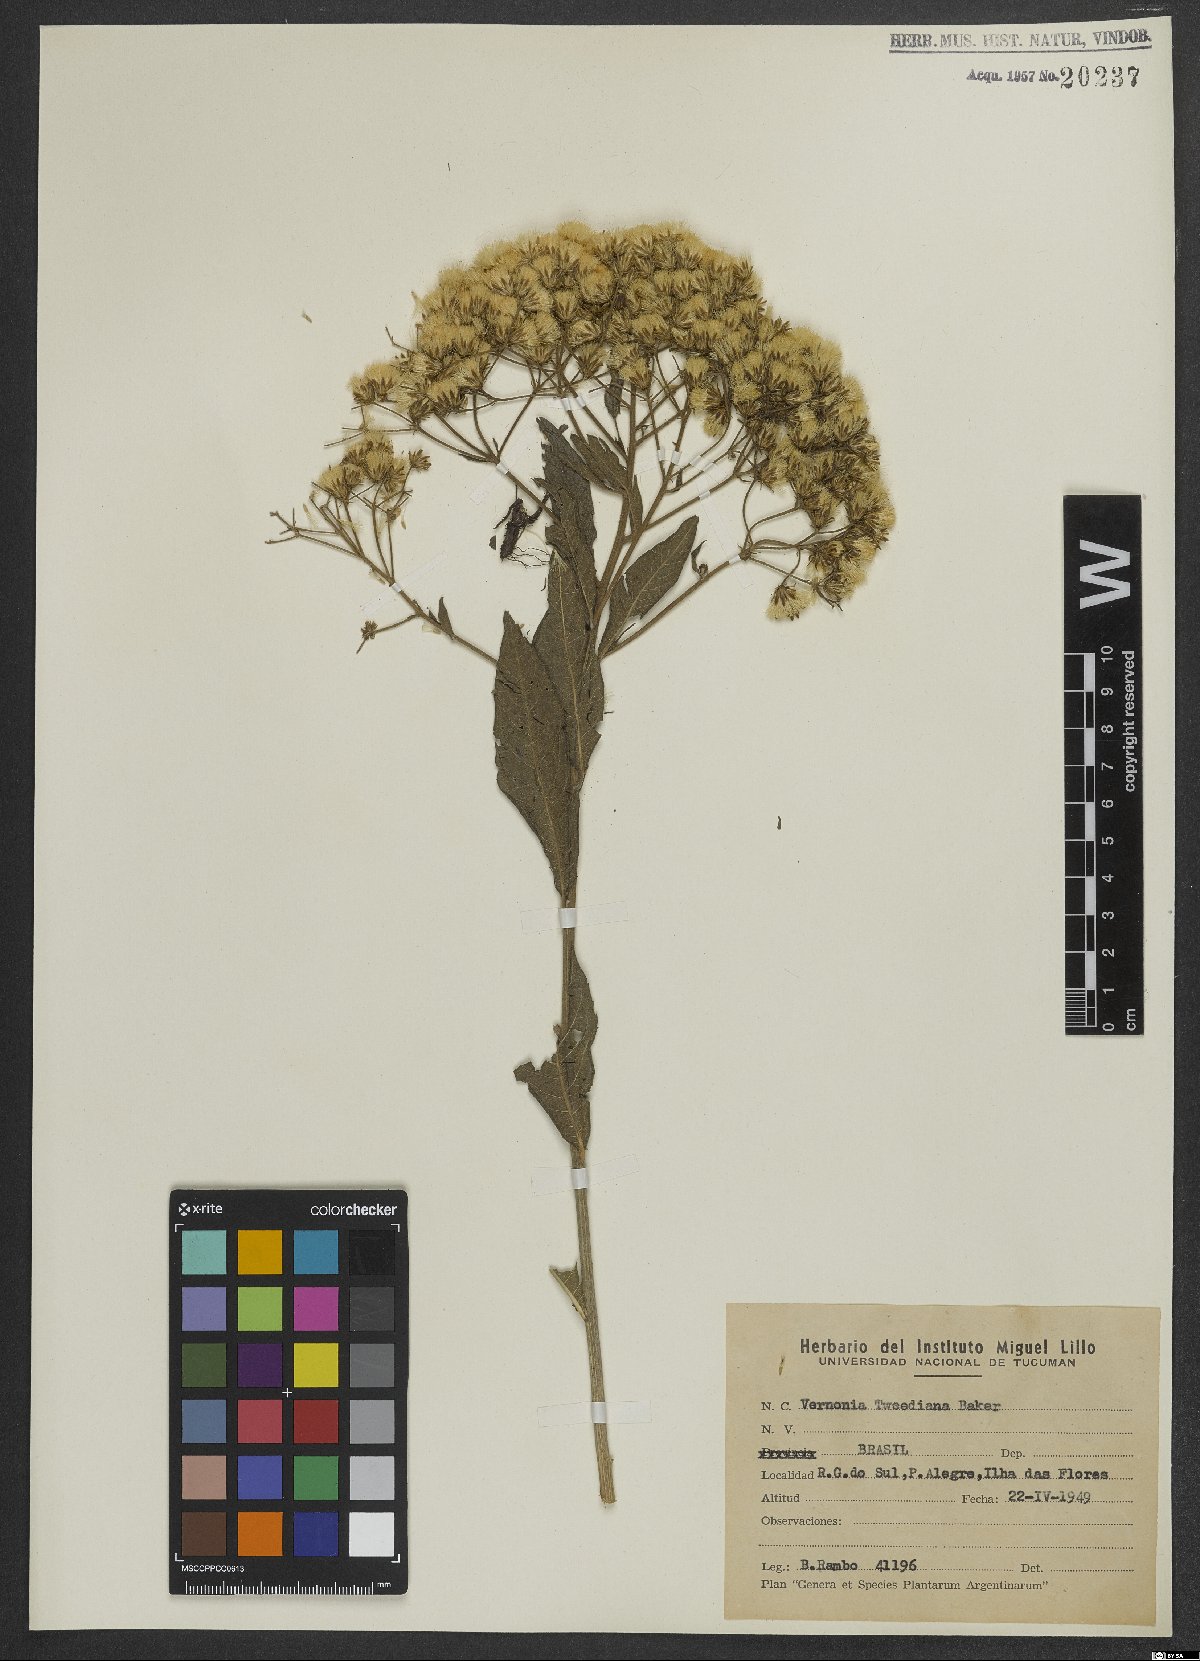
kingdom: Plantae
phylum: Tracheophyta
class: Magnoliopsida
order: Asterales
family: Asteraceae
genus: Vernonanthura
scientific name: Vernonanthura tweedieana
